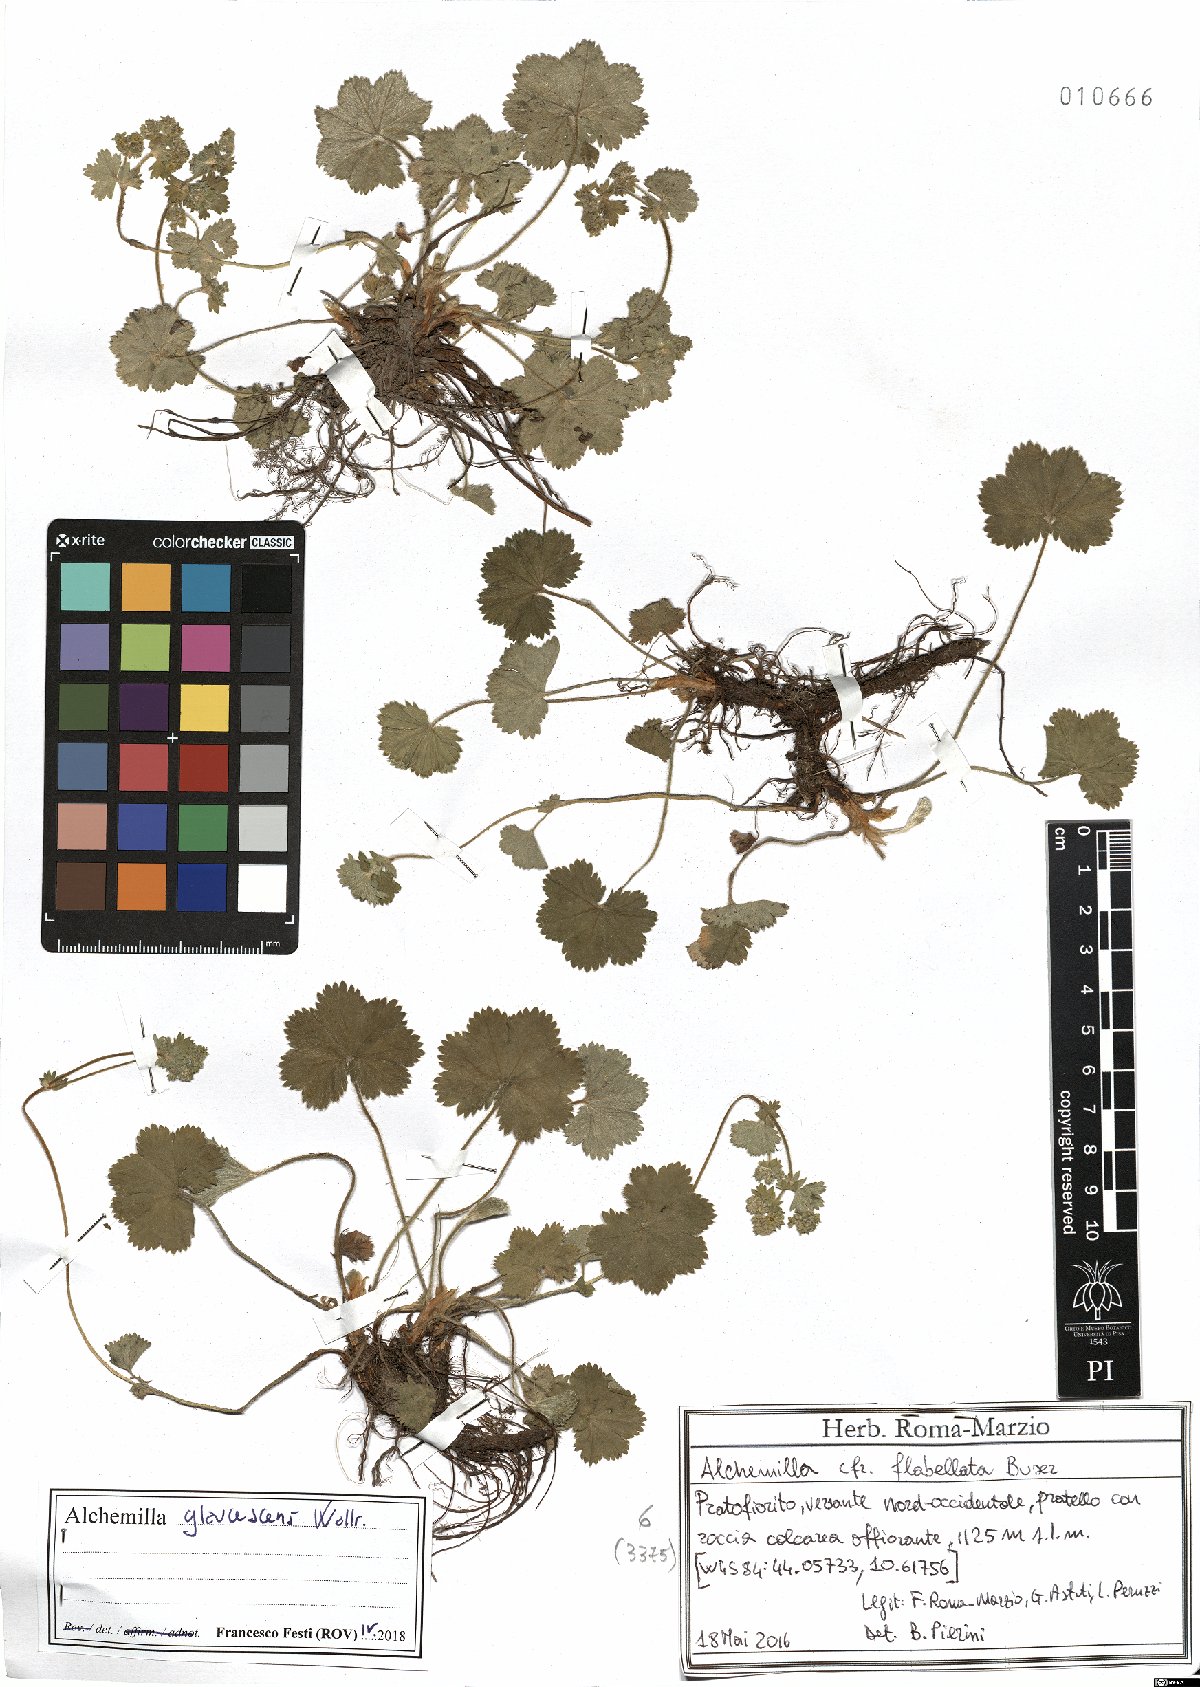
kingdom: Plantae
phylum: Tracheophyta
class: Magnoliopsida
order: Rosales
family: Rosaceae
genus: Alchemilla
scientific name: Alchemilla glaucescens
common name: Silky lady's mantle
